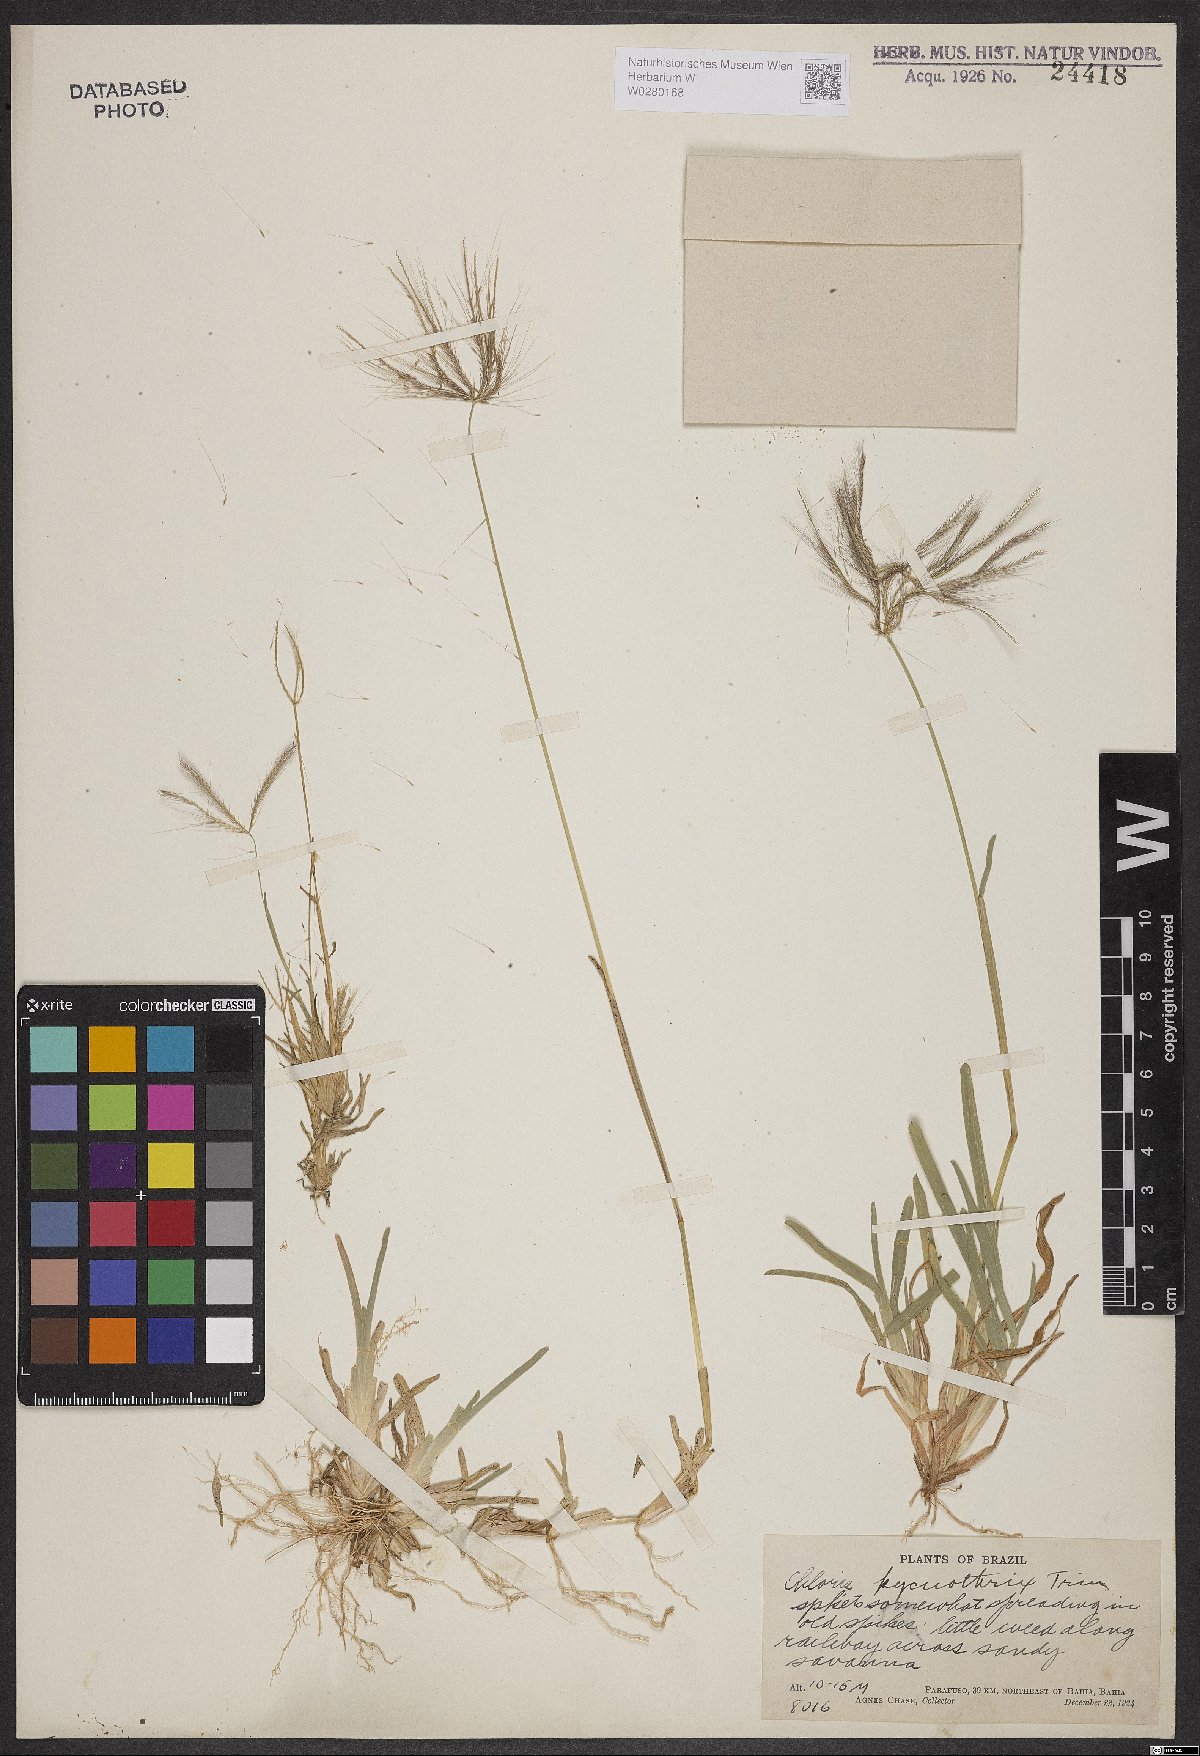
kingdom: Plantae
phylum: Tracheophyta
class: Liliopsida
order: Poales
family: Poaceae
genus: Chloris
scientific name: Chloris pycnothrix
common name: Spiderweb chloris
